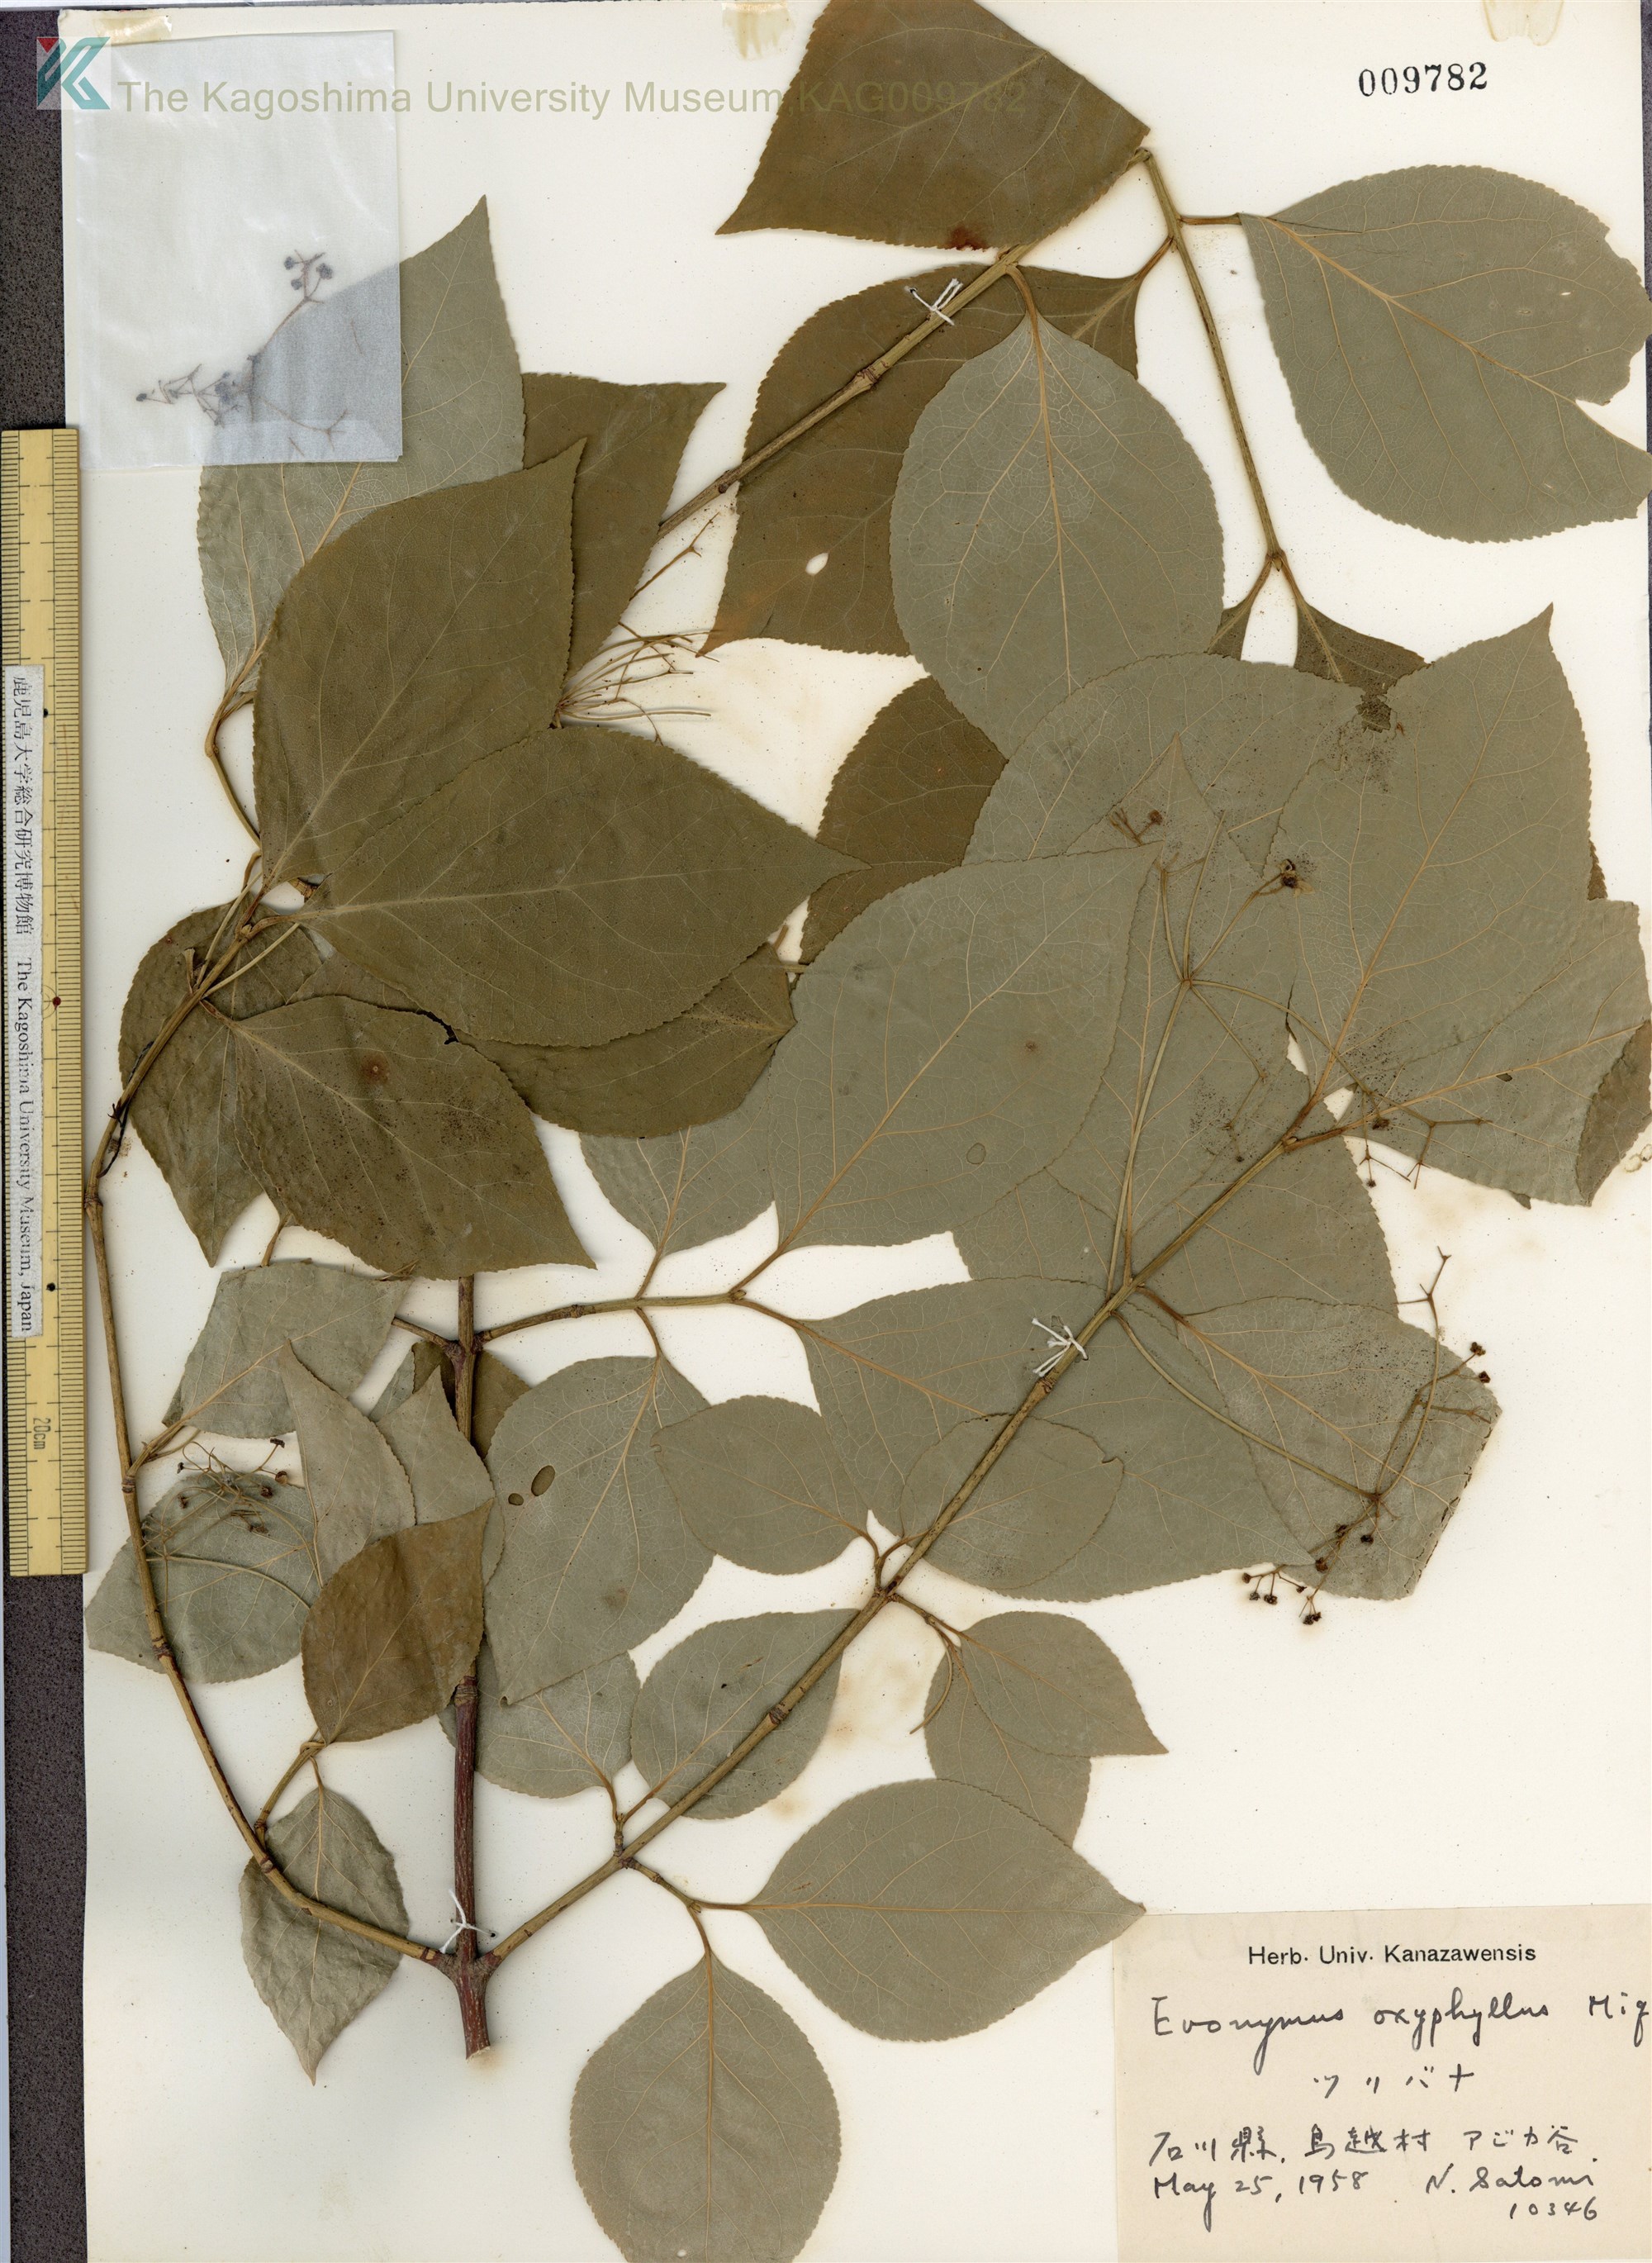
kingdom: Plantae
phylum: Tracheophyta
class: Magnoliopsida
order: Celastrales
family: Celastraceae
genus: Euonymus
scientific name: Euonymus oxyphyllus
